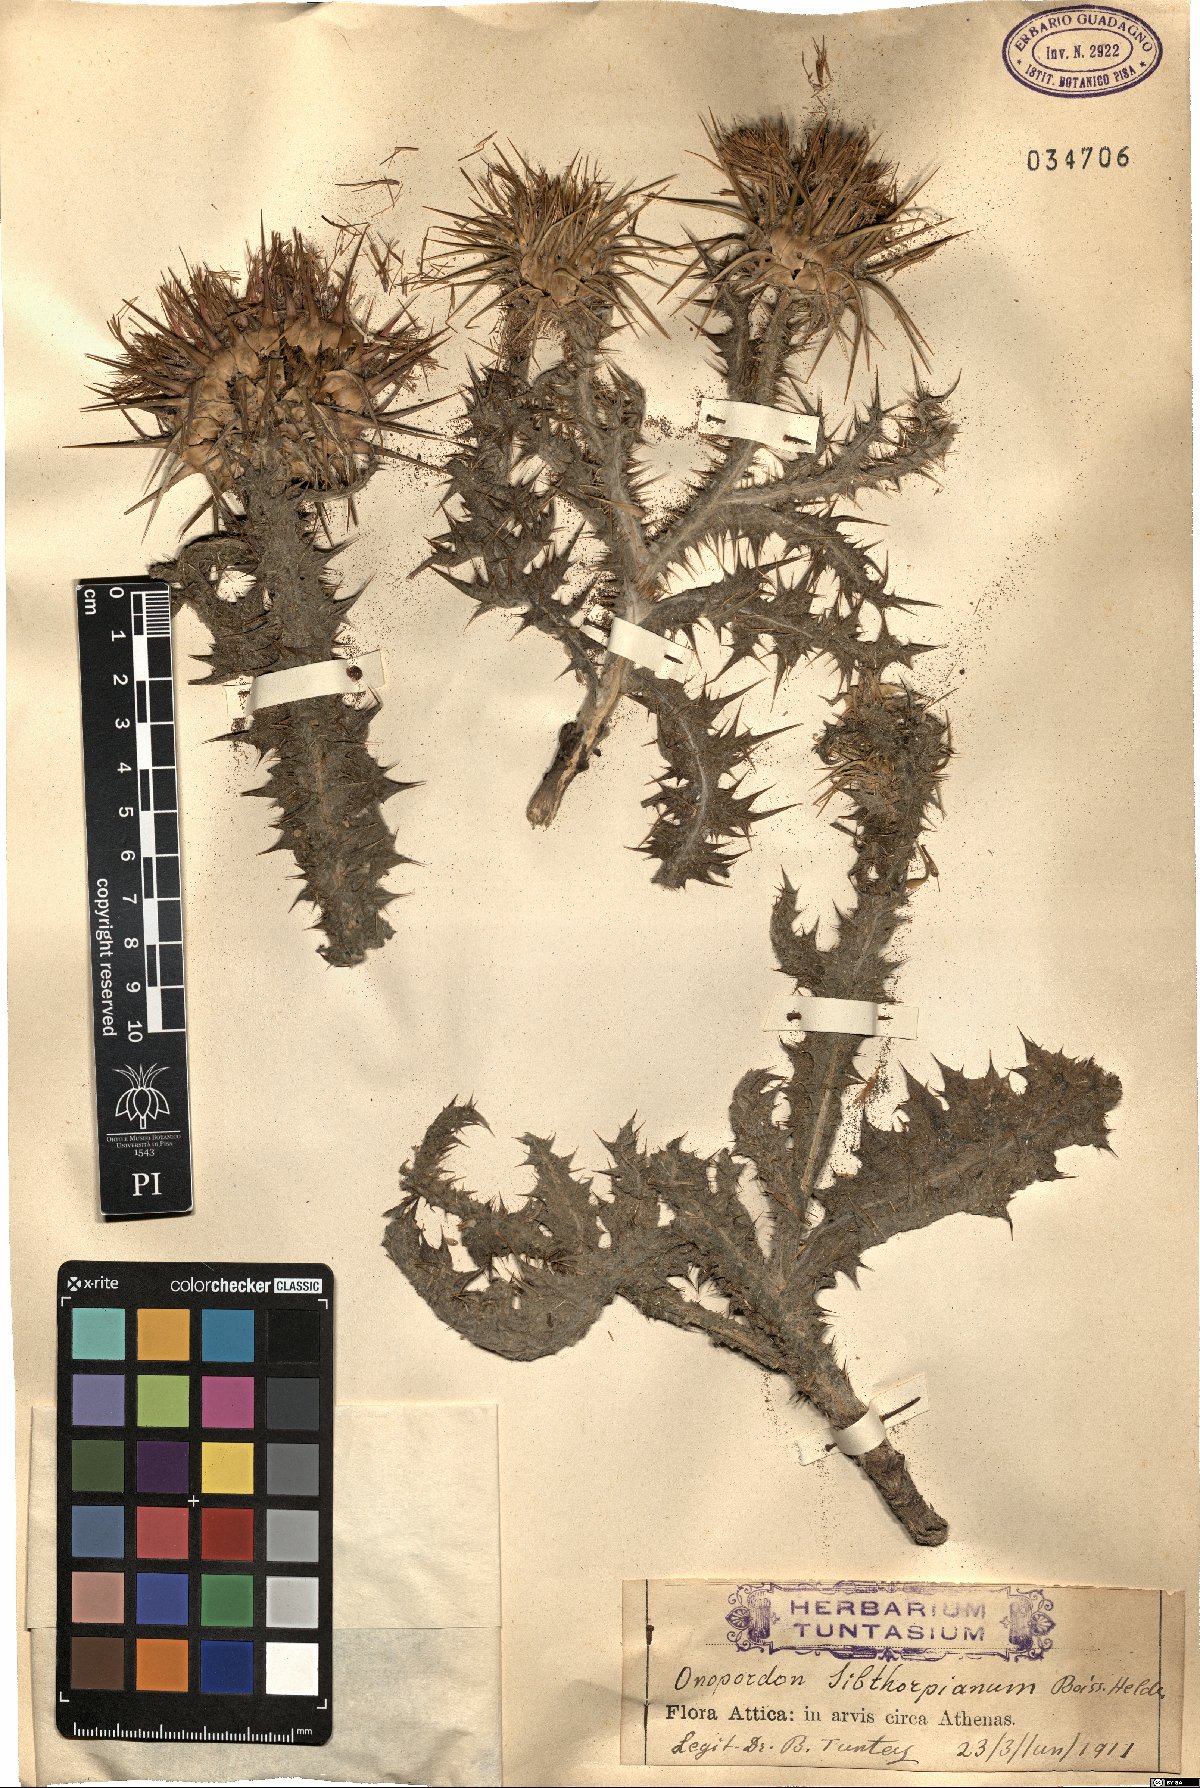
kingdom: Plantae
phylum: Tracheophyta
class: Magnoliopsida
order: Asterales
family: Asteraceae
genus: Onopordum
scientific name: Onopordum boissierianum
